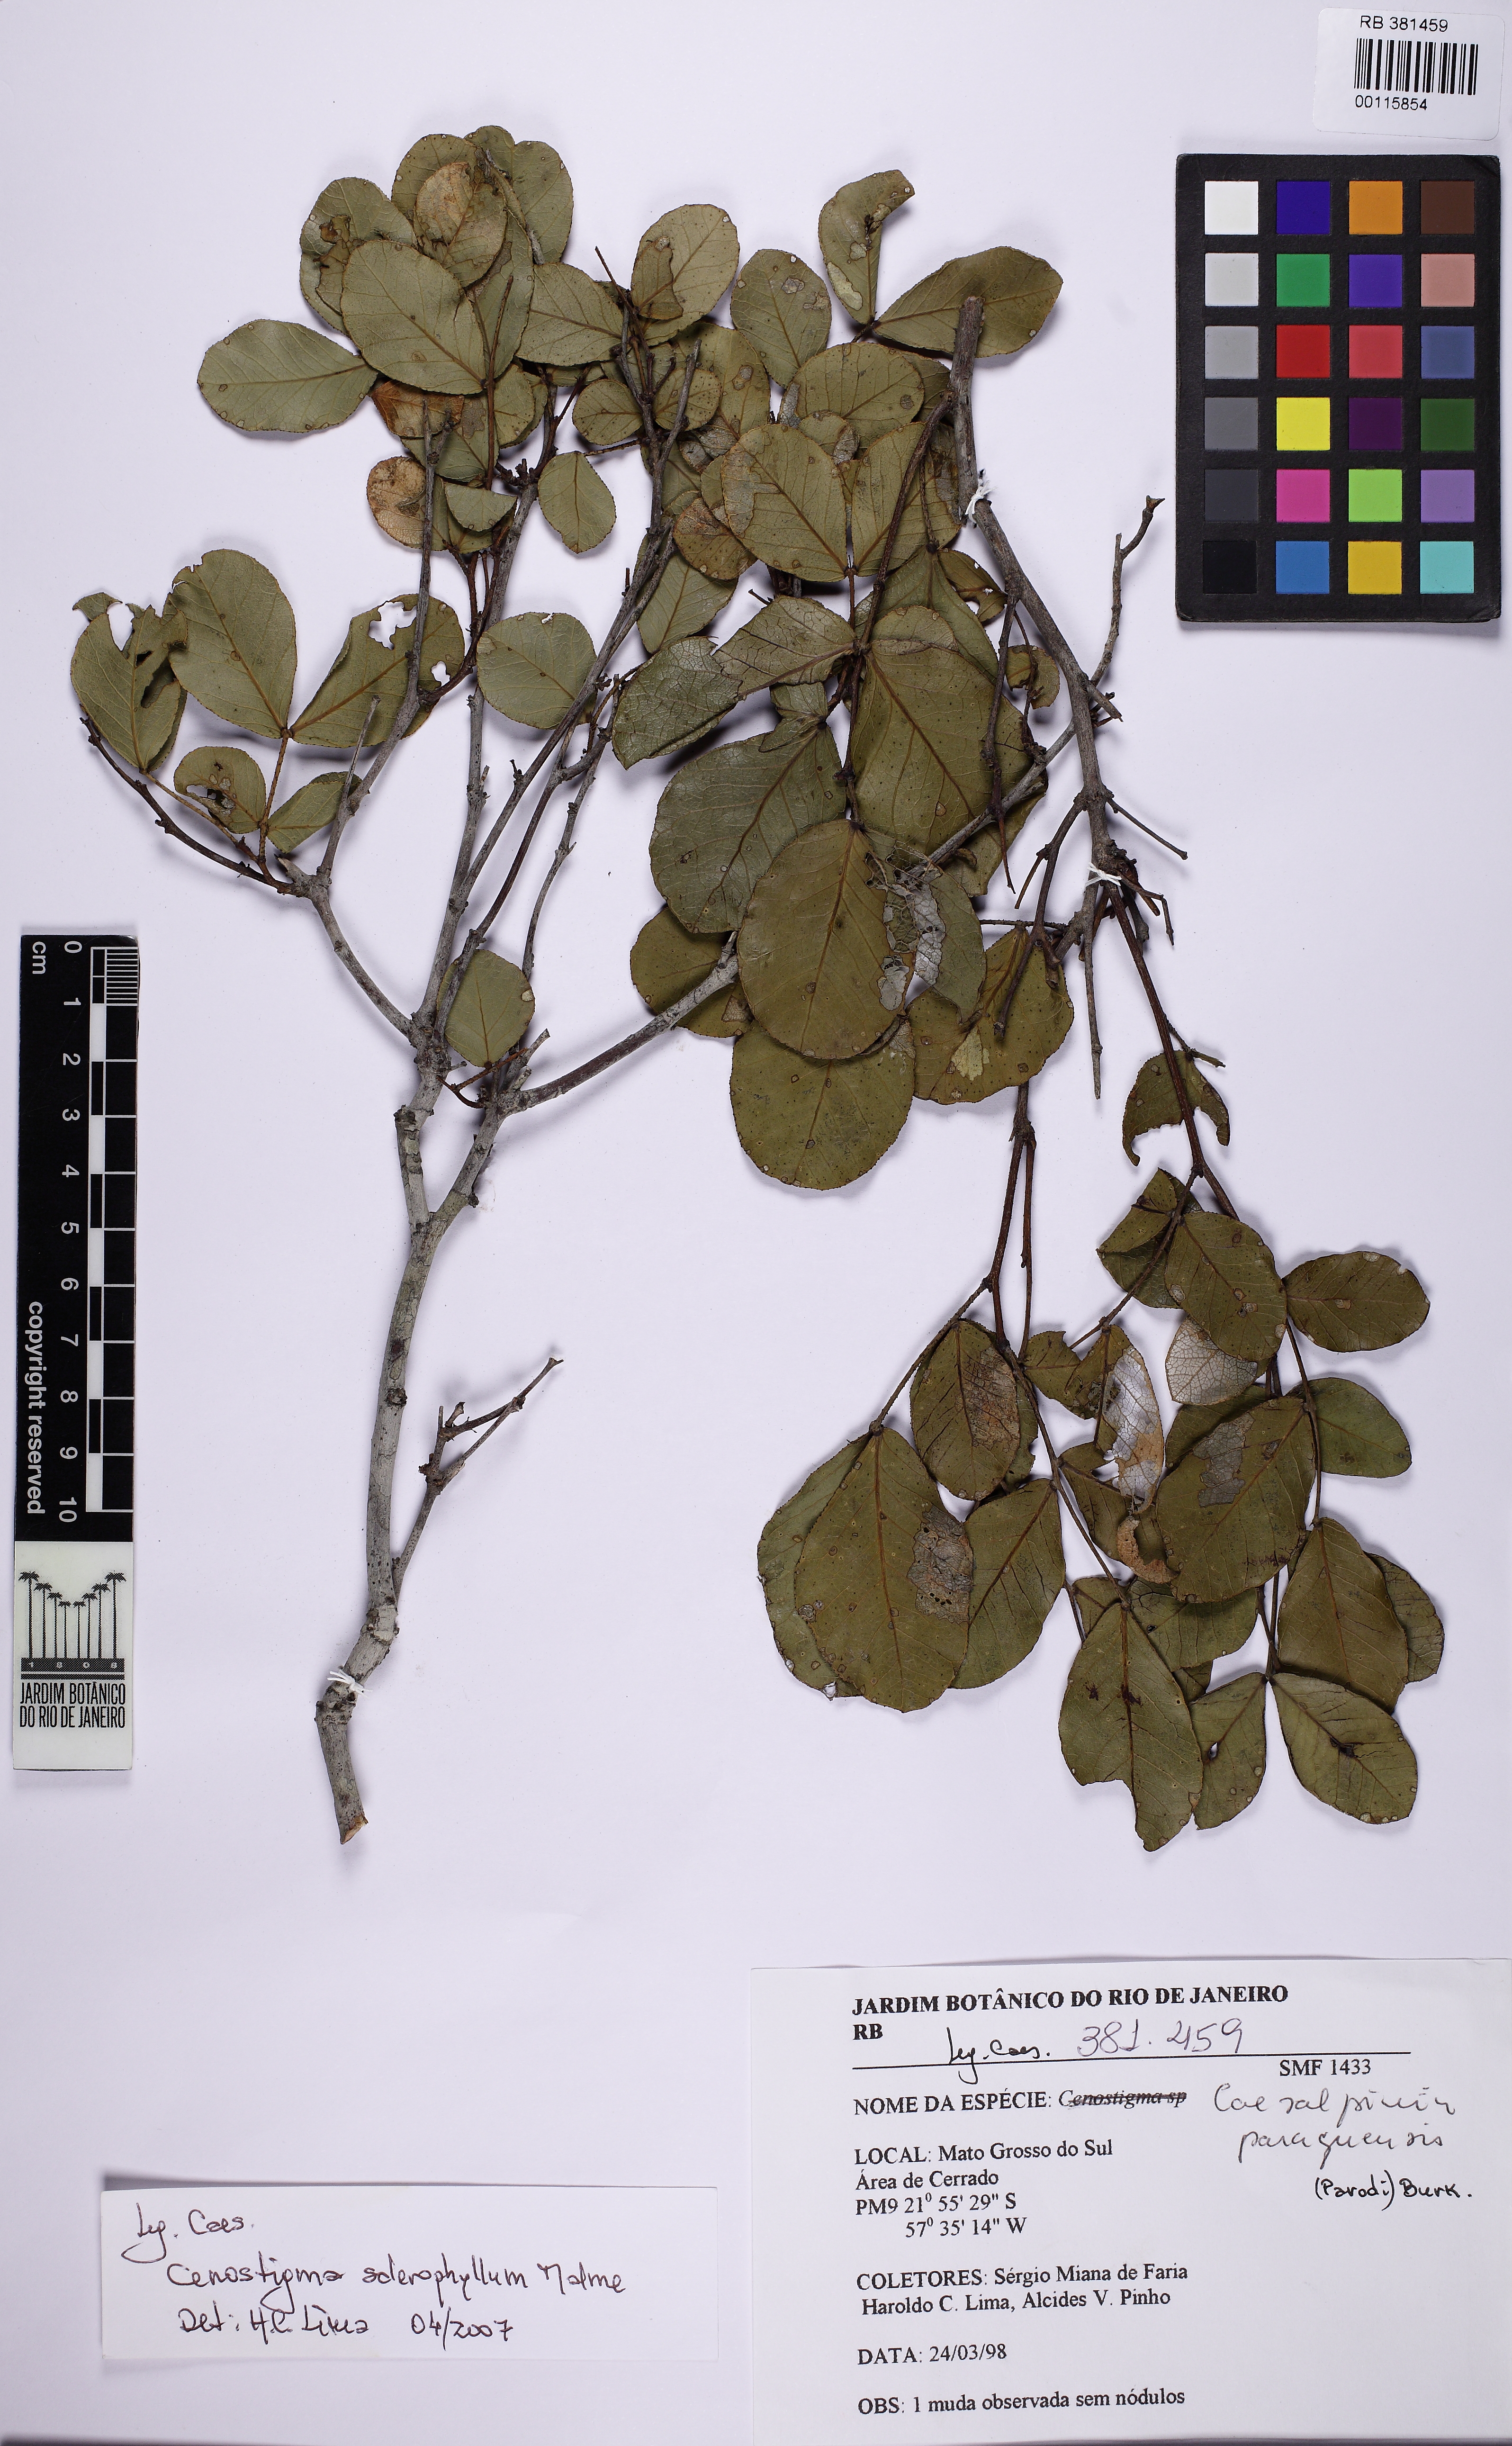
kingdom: Plantae
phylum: Tracheophyta
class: Magnoliopsida
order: Fabales
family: Fabaceae
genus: Cenostigma
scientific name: Cenostigma marginatum
